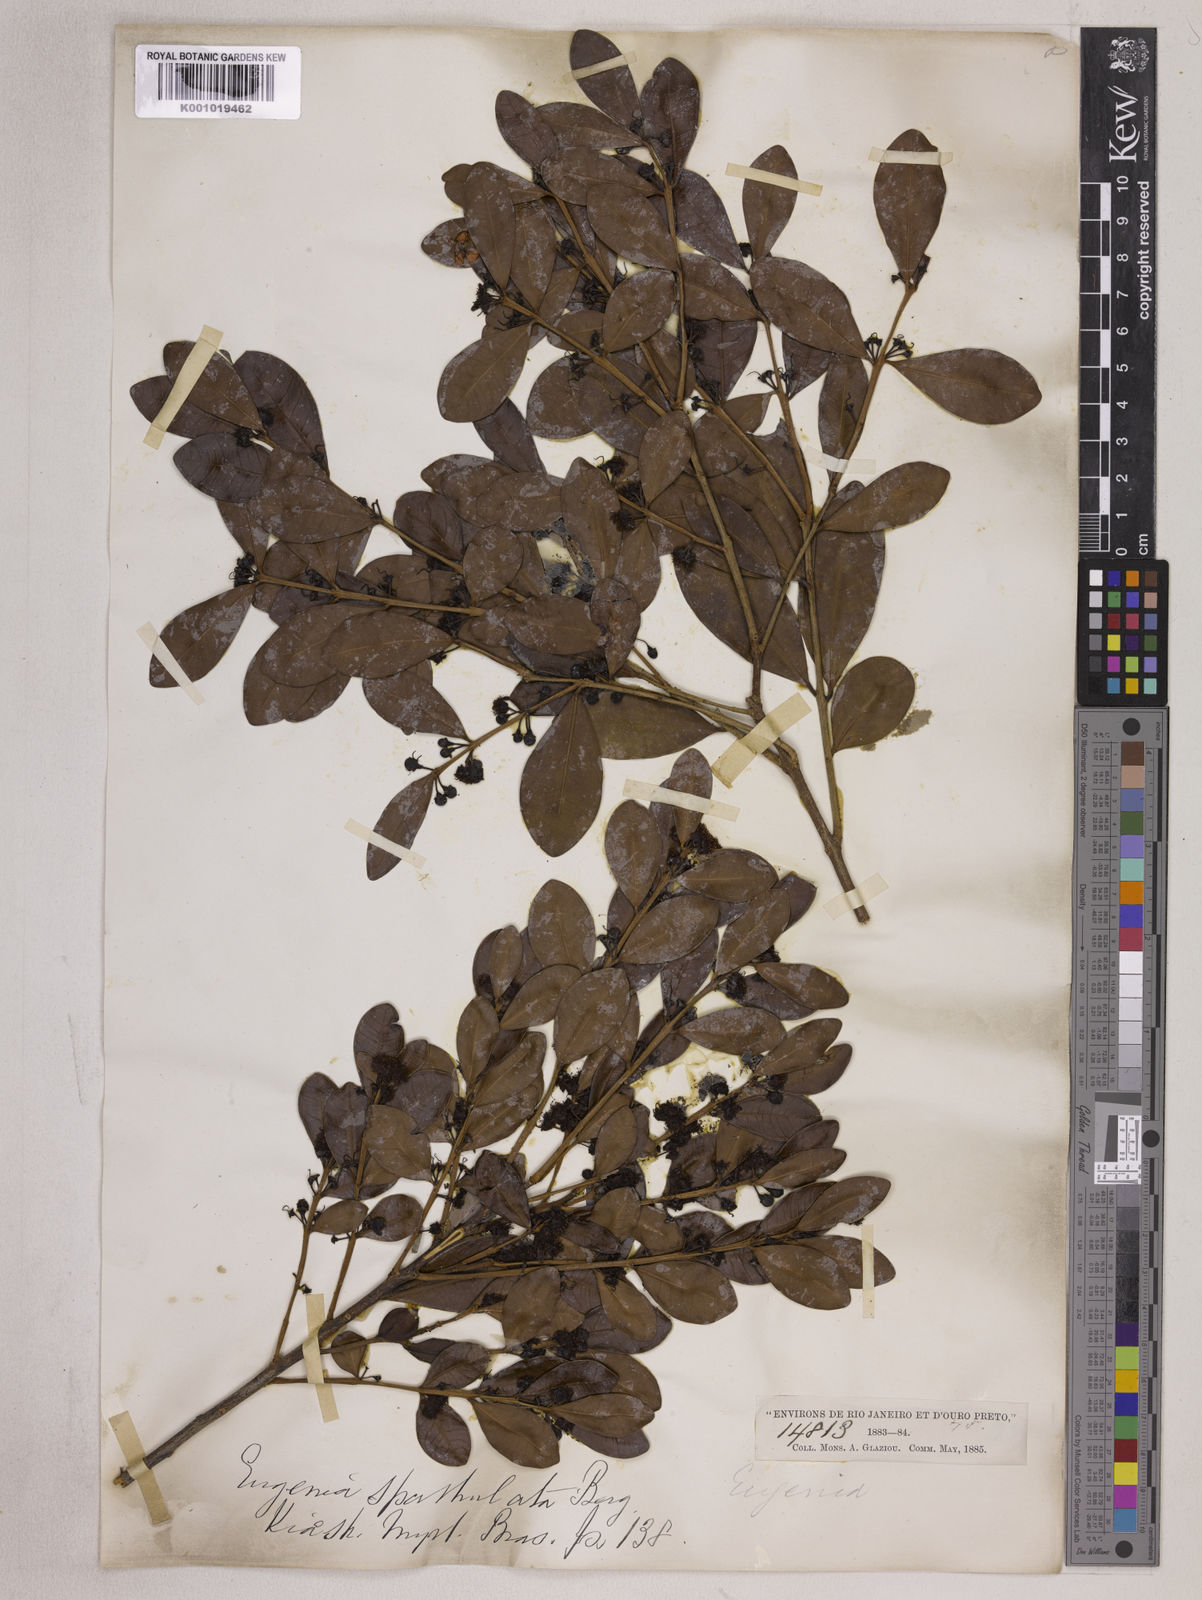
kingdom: Plantae
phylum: Tracheophyta
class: Magnoliopsida
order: Myrtales
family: Myrtaceae
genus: Eugenia
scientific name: Eugenia punicifolia
